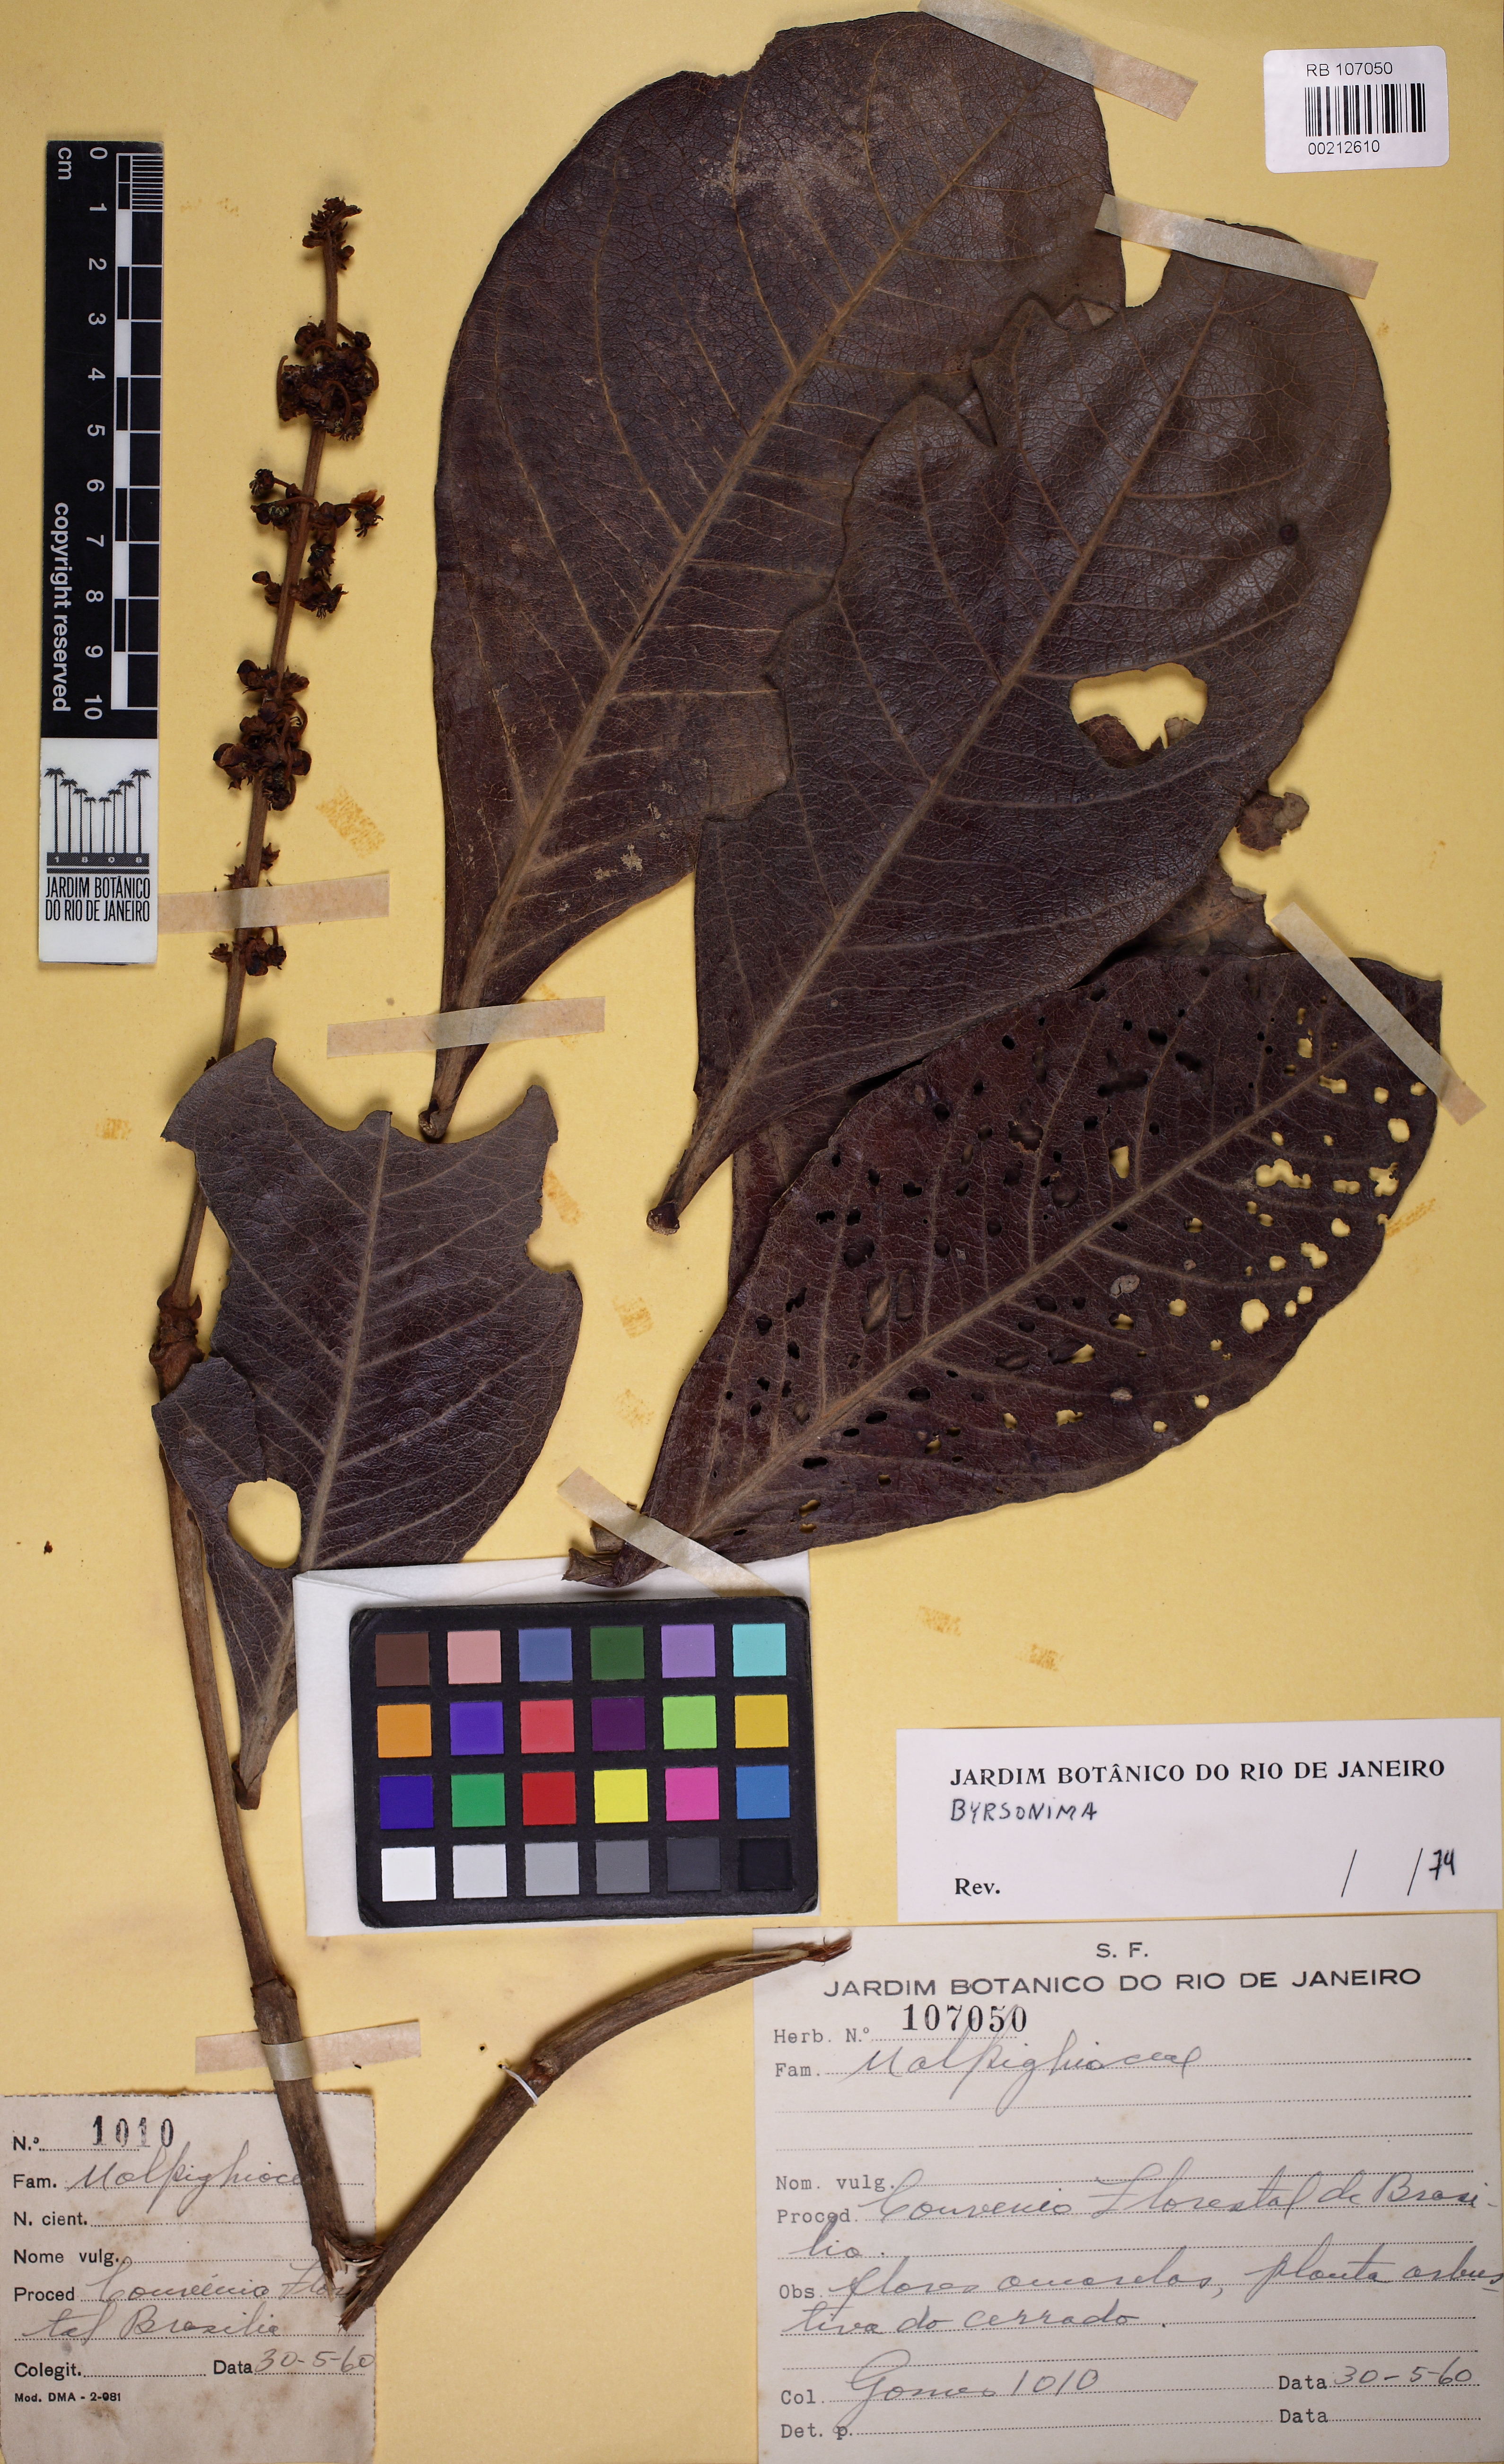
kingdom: Plantae
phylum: Tracheophyta
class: Magnoliopsida
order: Malpighiales
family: Malpighiaceae
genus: Byrsonima
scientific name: Byrsonima guilleminiana
